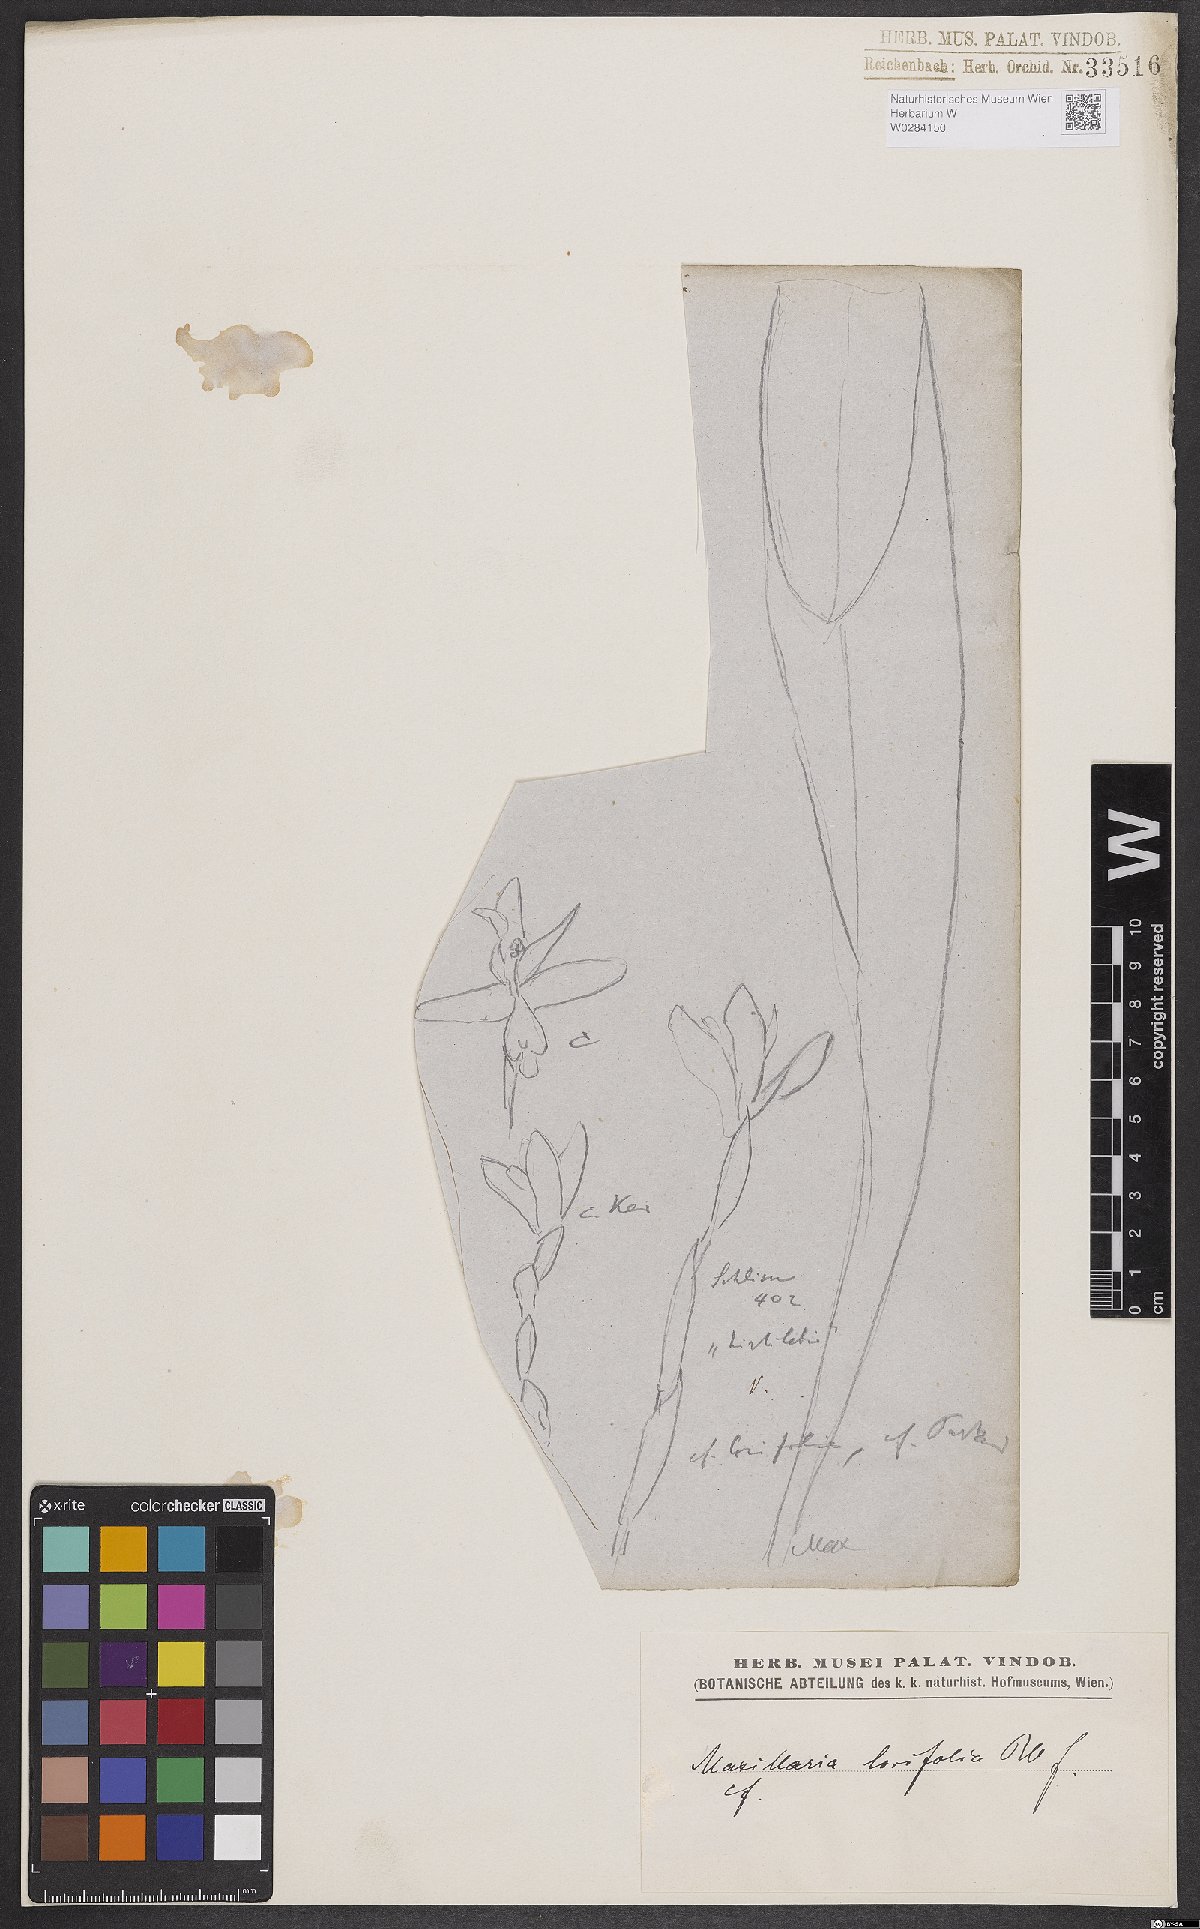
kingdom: Plantae
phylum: Tracheophyta
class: Liliopsida
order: Asparagales
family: Orchidaceae
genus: Maxillaria
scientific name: Maxillaria parkeri
